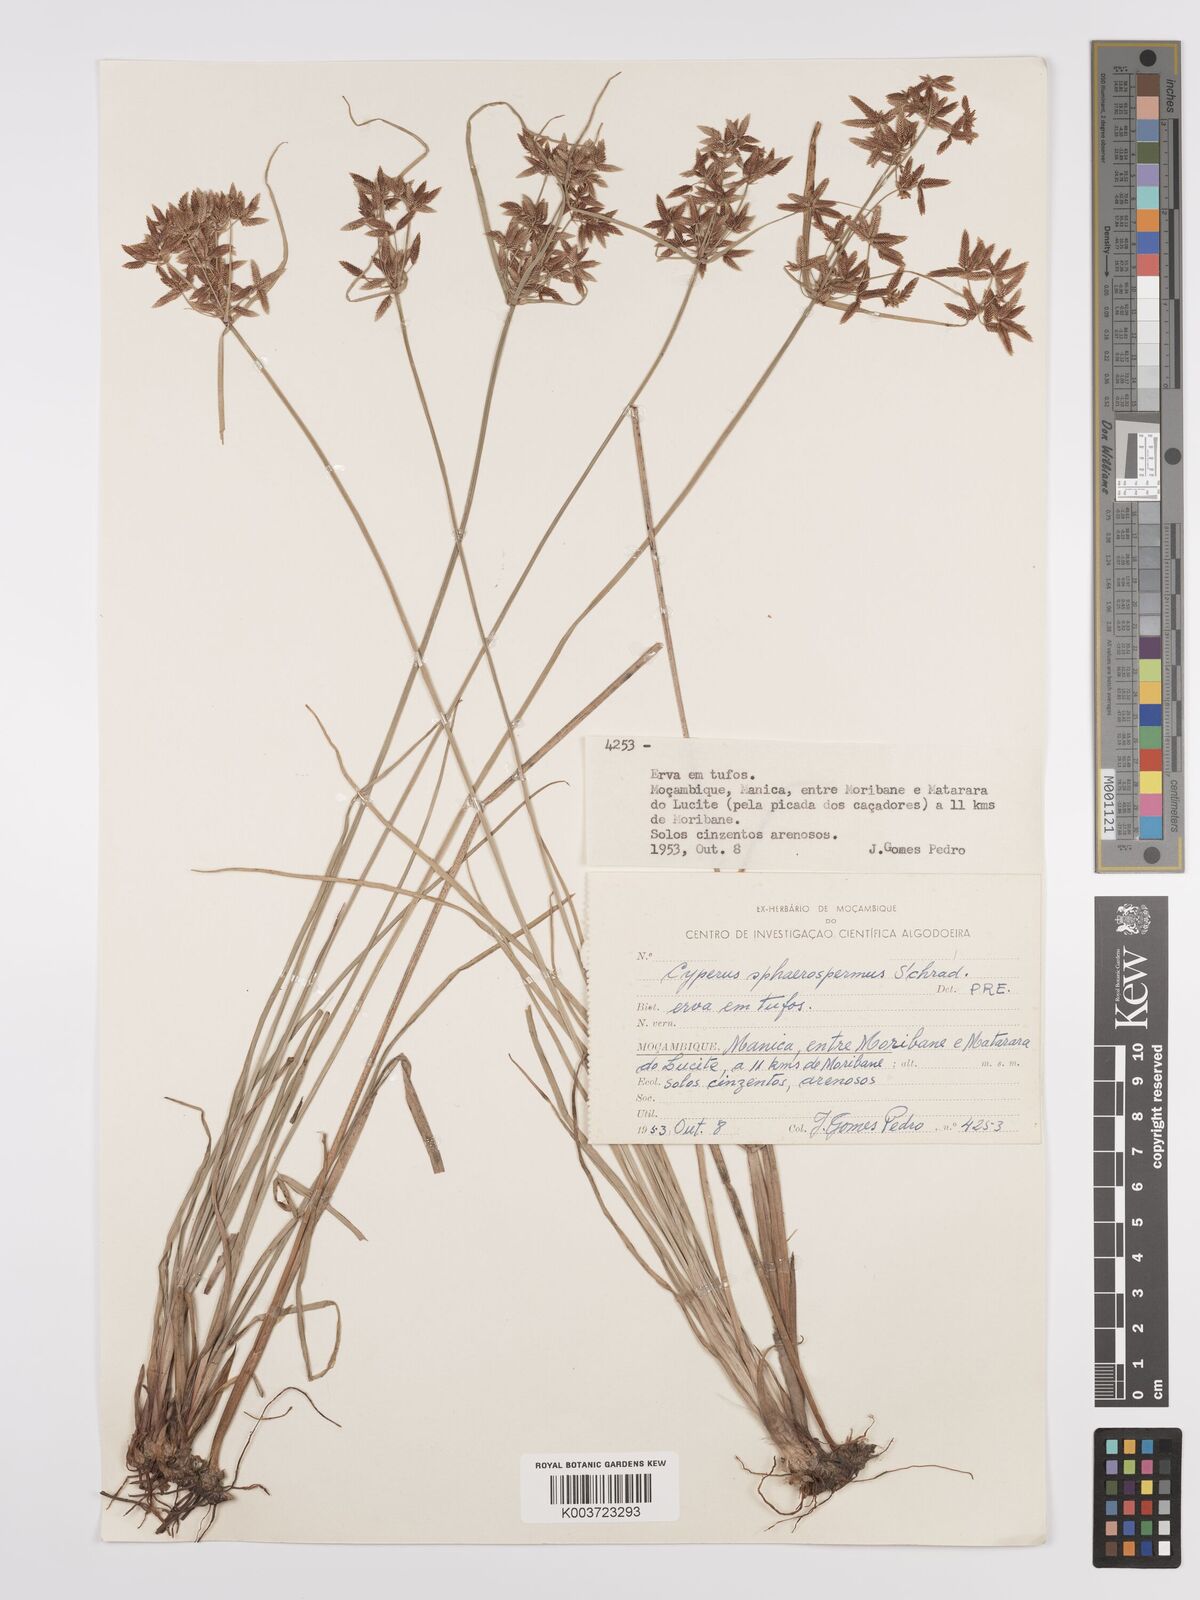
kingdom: Plantae
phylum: Tracheophyta
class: Liliopsida
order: Poales
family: Cyperaceae
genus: Cyperus
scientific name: Cyperus denudatus
